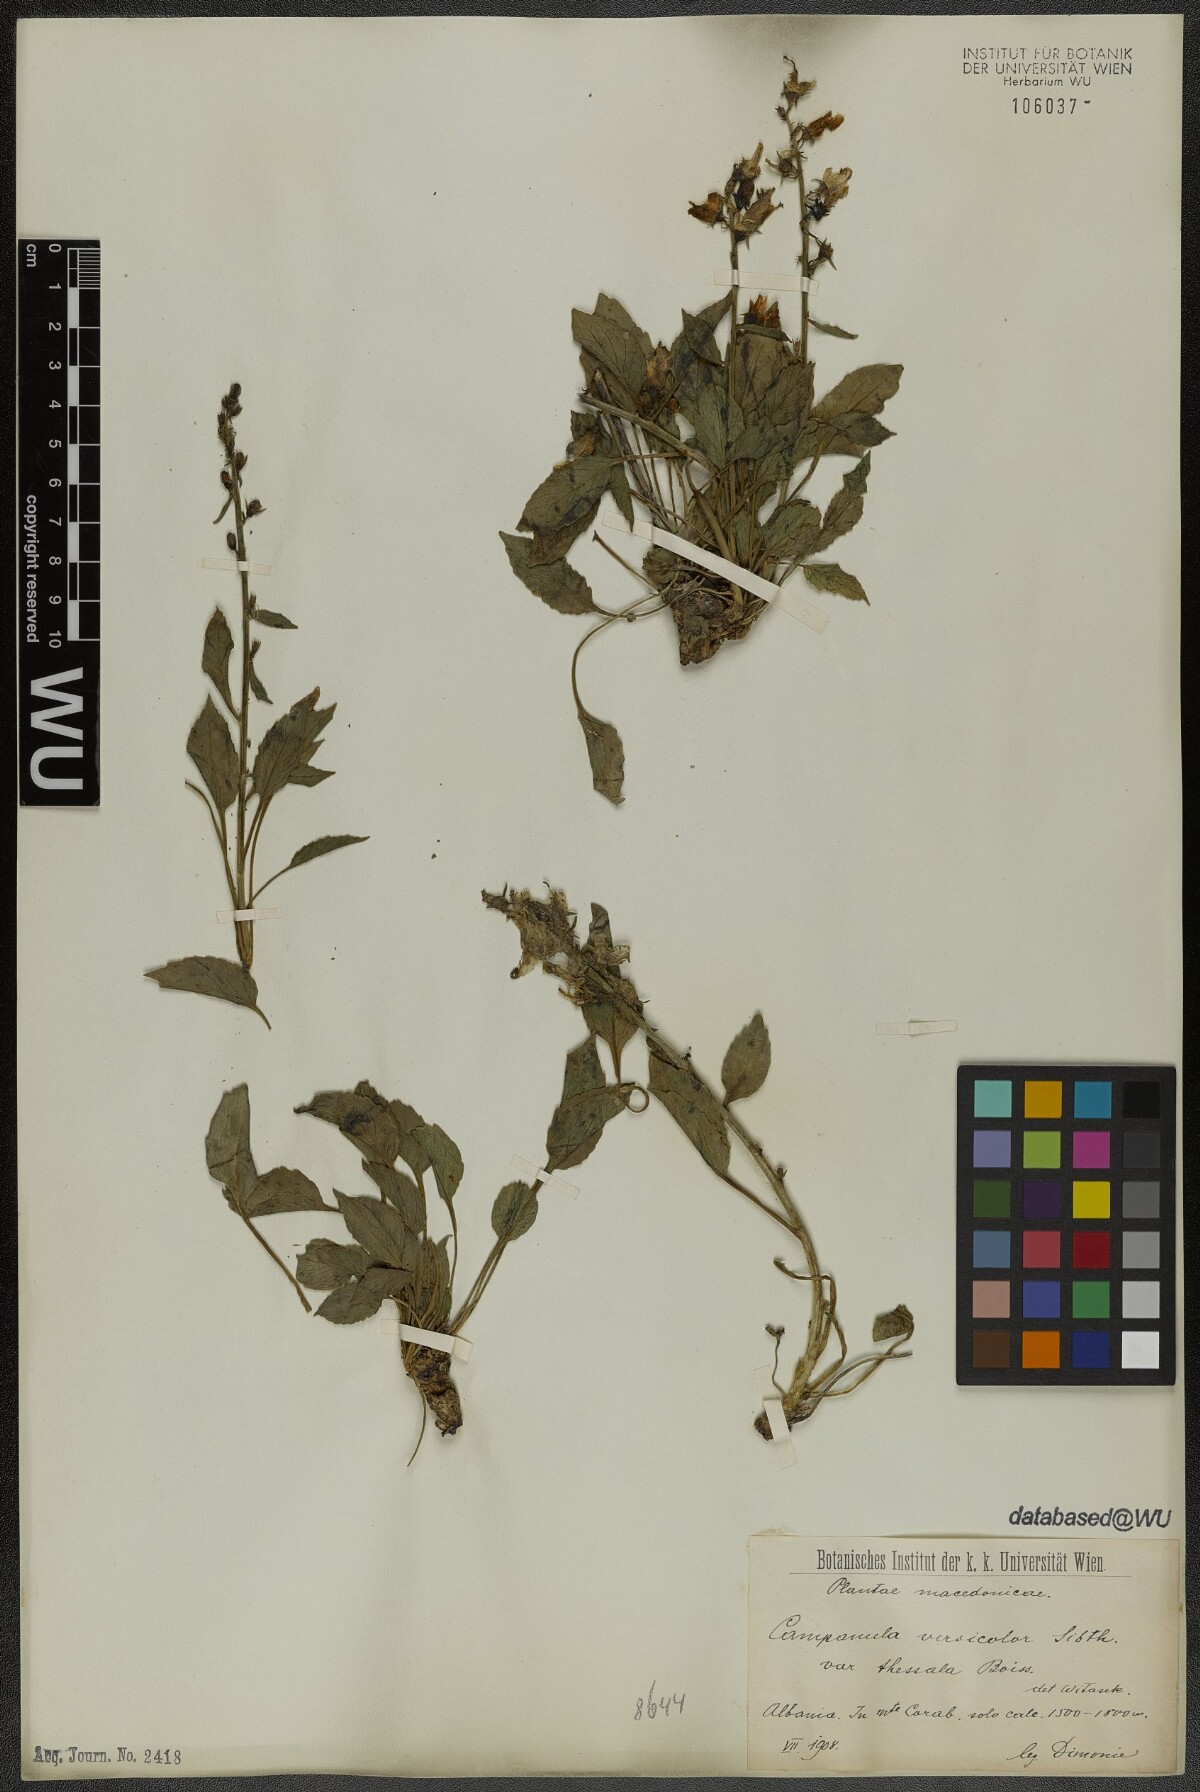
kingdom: Plantae
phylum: Tracheophyta
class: Magnoliopsida
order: Asterales
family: Campanulaceae
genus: Campanula
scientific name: Campanula versicolor
